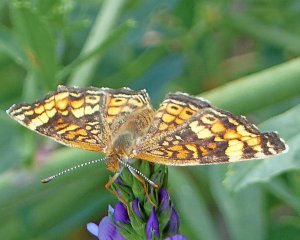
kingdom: Animalia
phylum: Arthropoda
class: Insecta
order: Lepidoptera
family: Nymphalidae
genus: Phyciodes
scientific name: Phyciodes tharos
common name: Northern Crescent
